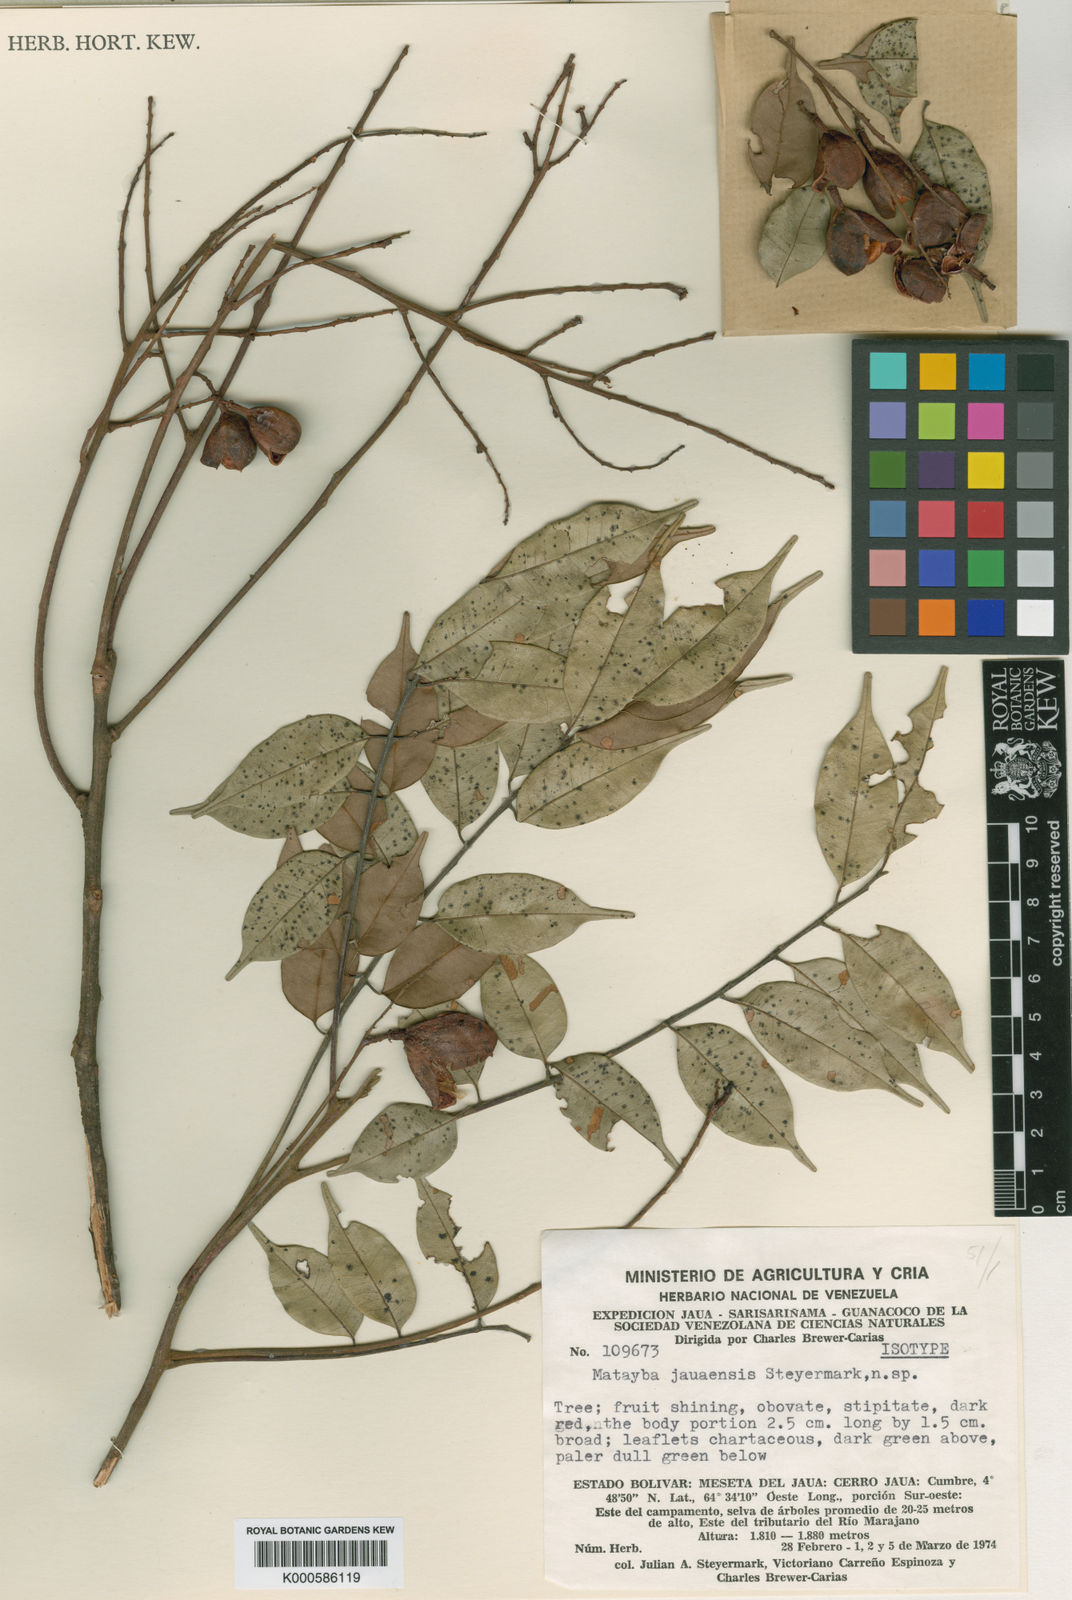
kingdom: Plantae
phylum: Tracheophyta
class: Magnoliopsida
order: Sapindales
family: Sapindaceae
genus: Matayba
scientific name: Matayba peruviana
